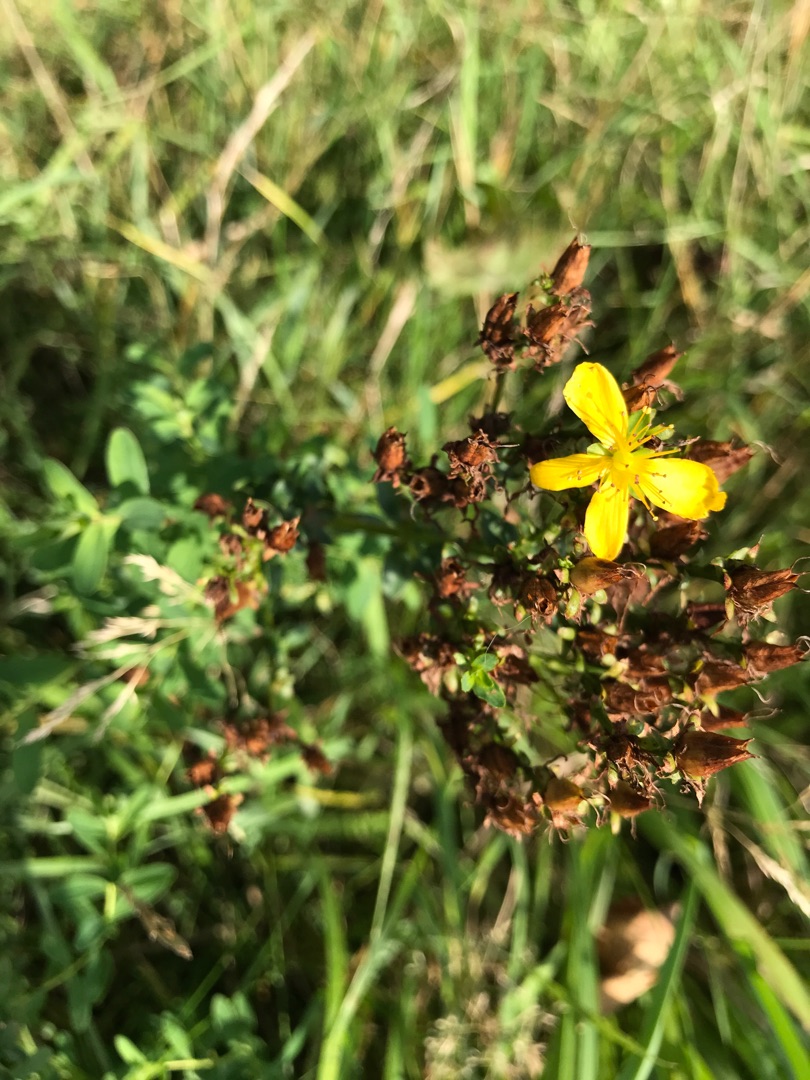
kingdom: Plantae
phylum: Tracheophyta
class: Magnoliopsida
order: Malpighiales
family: Hypericaceae
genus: Hypericum
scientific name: Hypericum perforatum
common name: Prikbladet perikon
